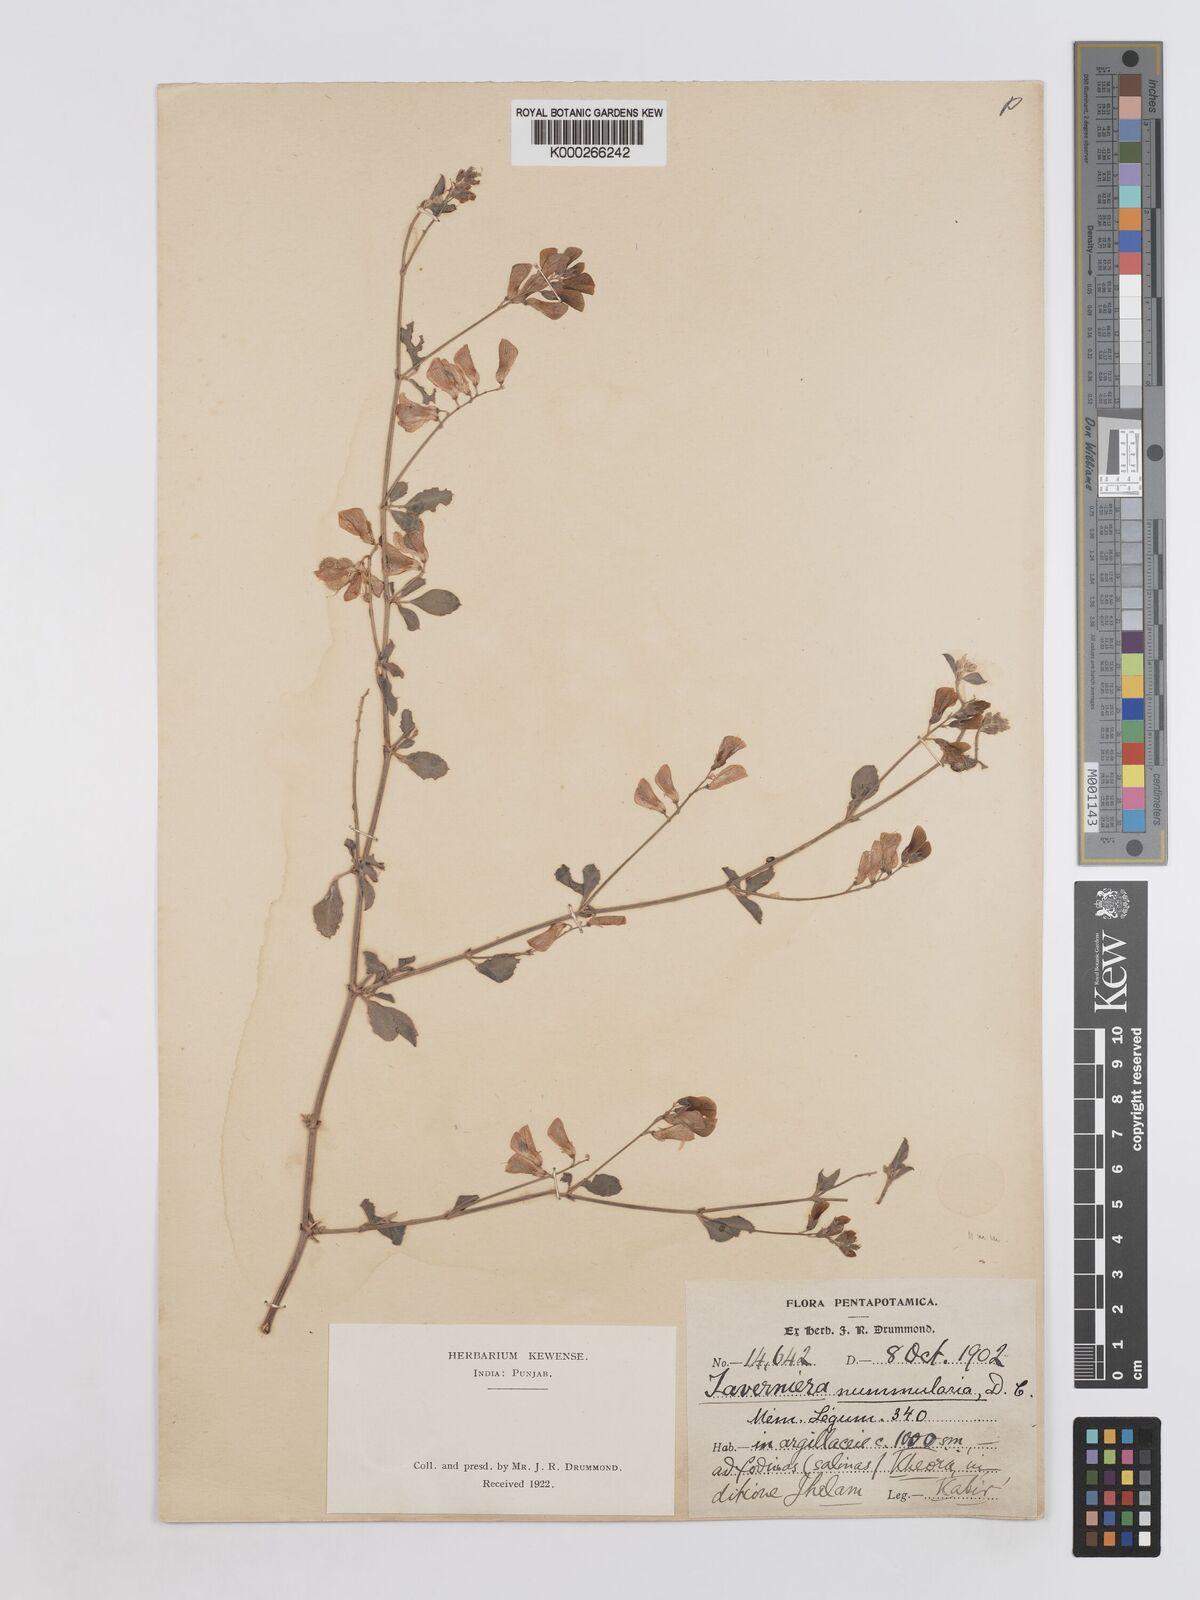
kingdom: Plantae
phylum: Tracheophyta
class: Magnoliopsida
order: Fabales
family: Fabaceae
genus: Taverniera
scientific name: Taverniera nummularia
